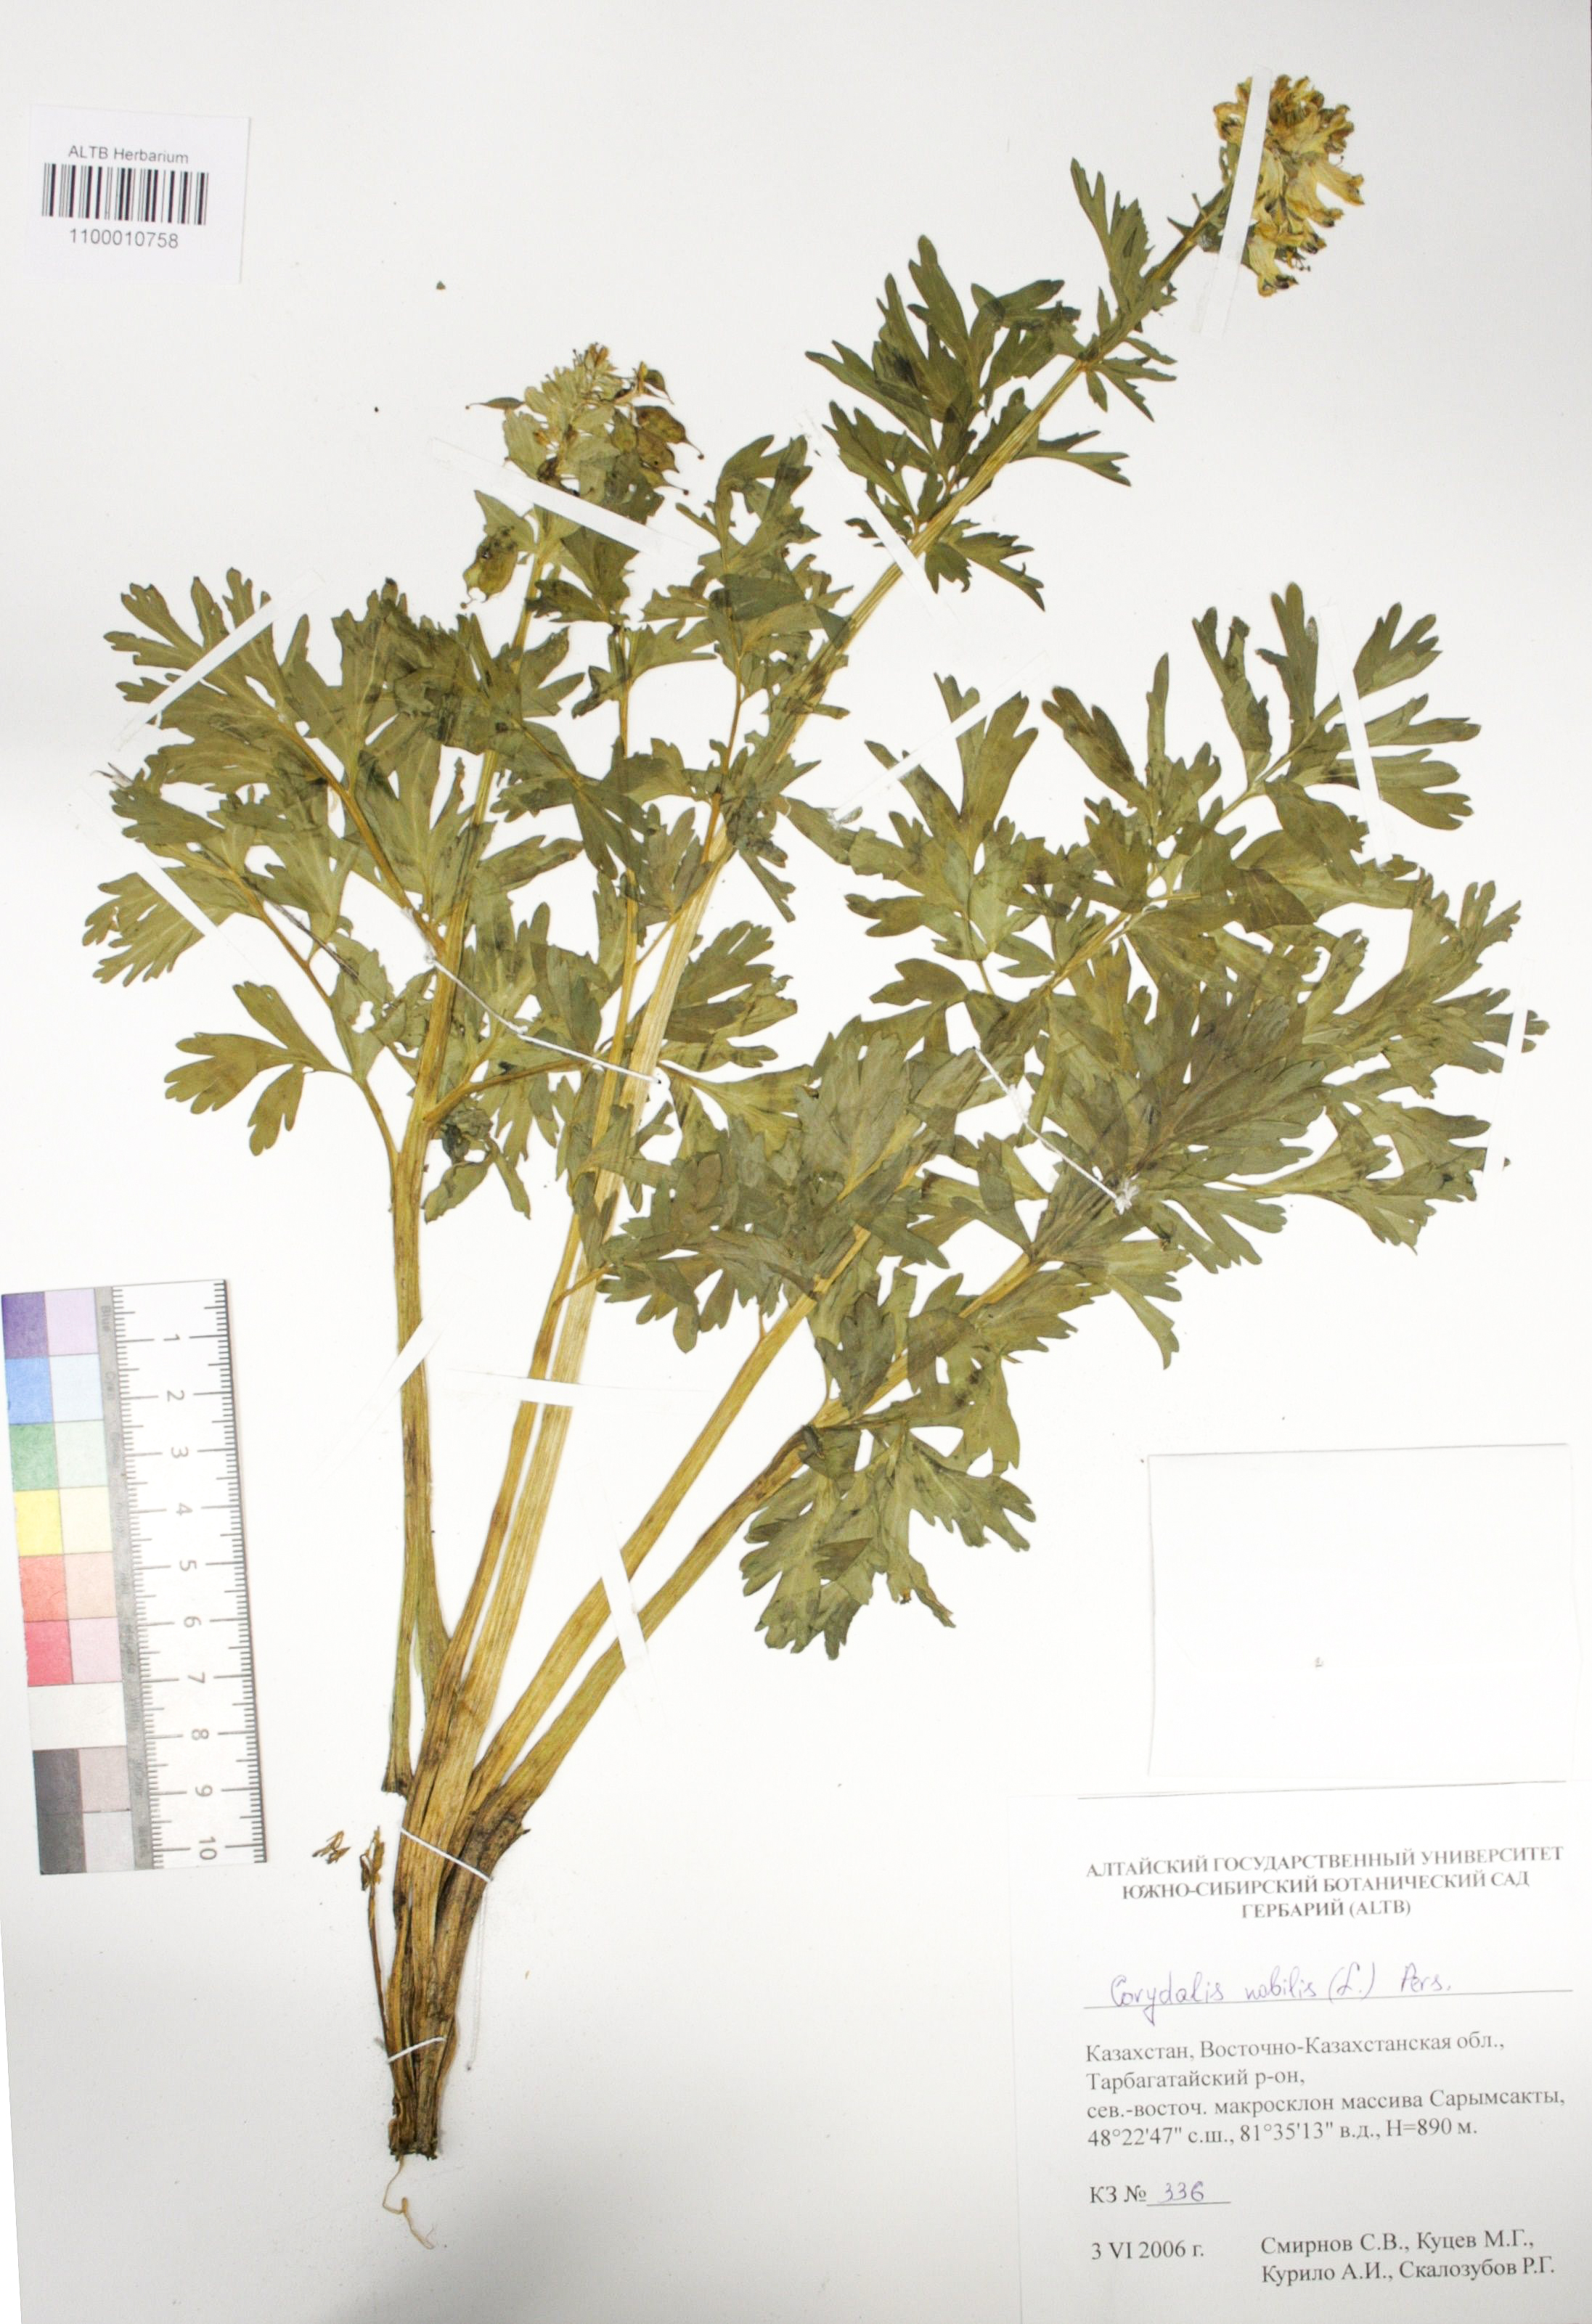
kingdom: Plantae
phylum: Tracheophyta
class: Magnoliopsida
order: Ranunculales
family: Papaveraceae
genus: Corydalis
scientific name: Corydalis nobilis
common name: Siberian corydalis
